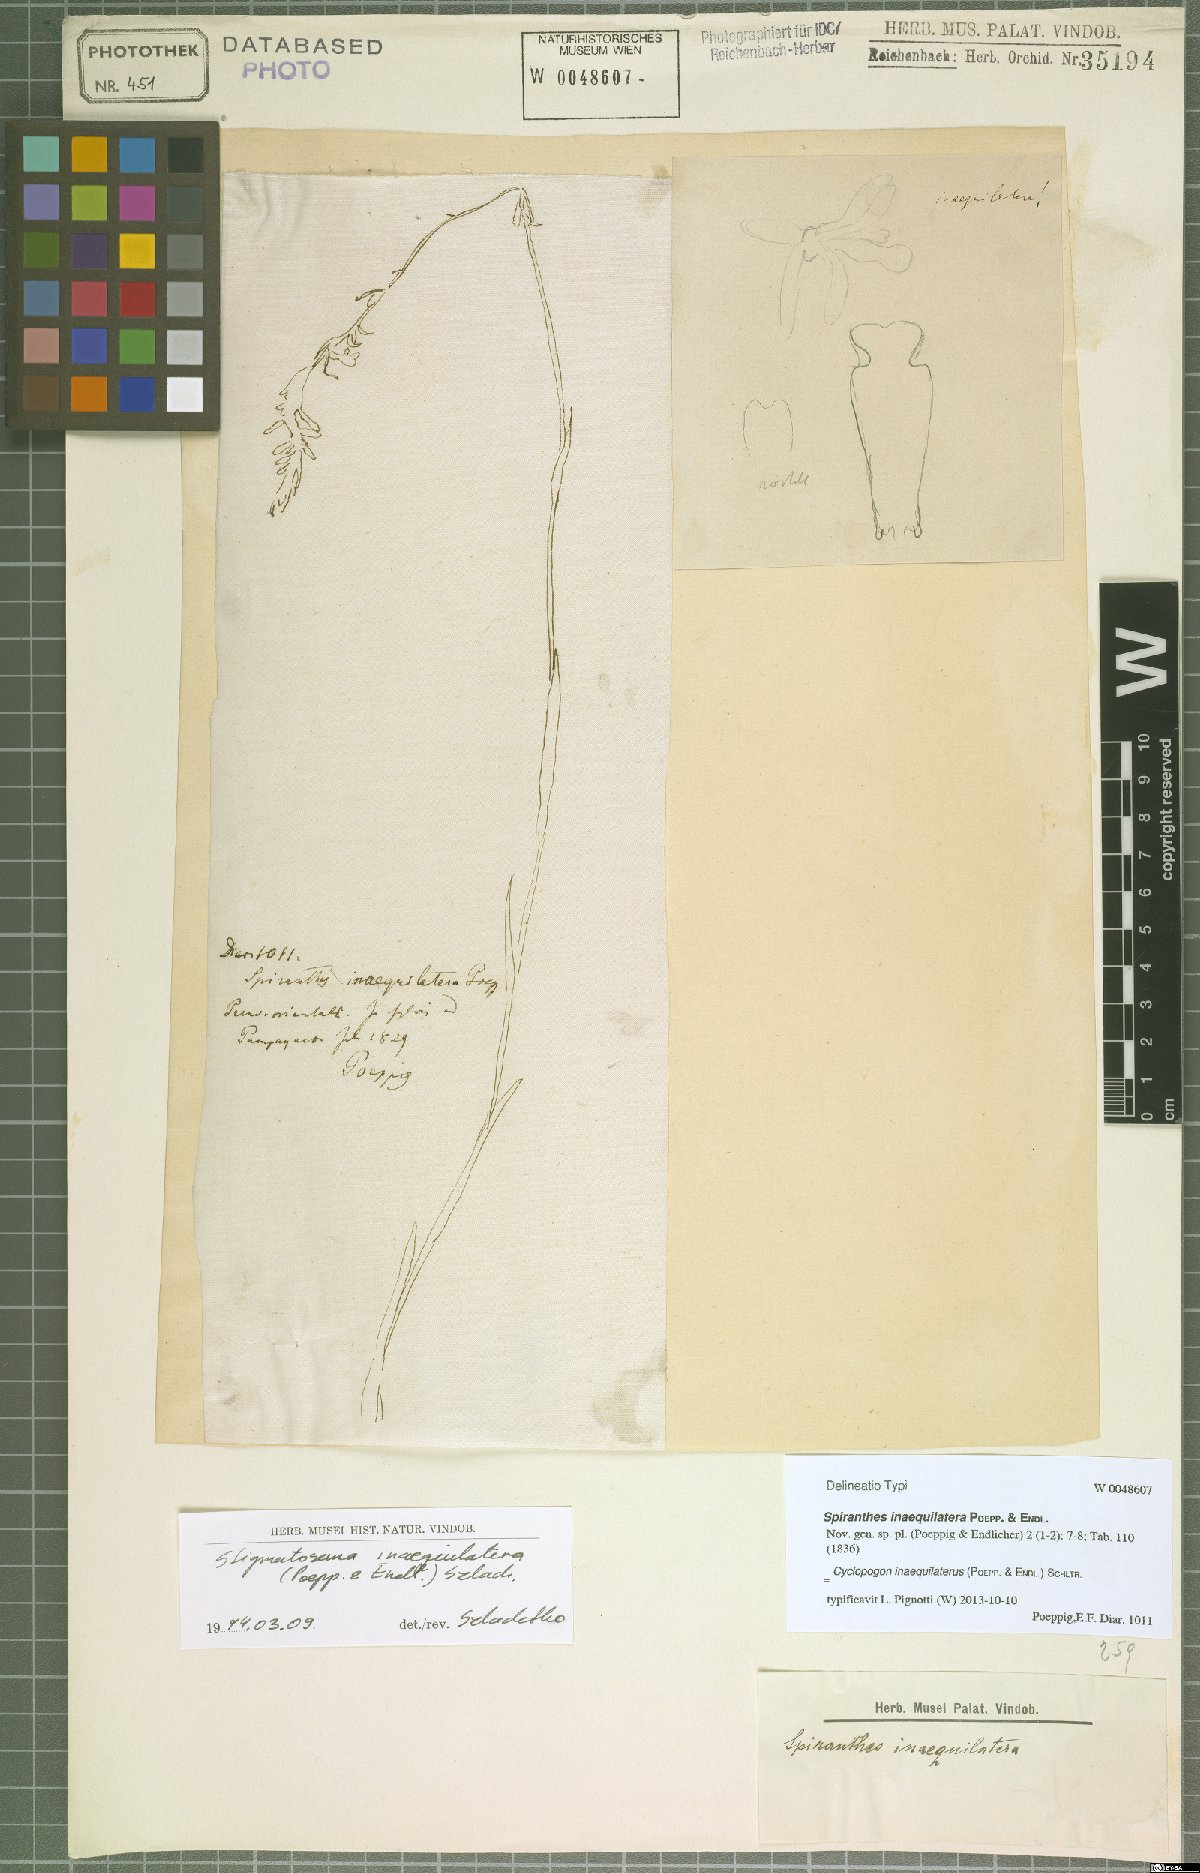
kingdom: Plantae
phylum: Tracheophyta
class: Liliopsida
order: Asparagales
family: Orchidaceae
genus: Cyclopogon
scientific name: Cyclopogon inaequilaterus
